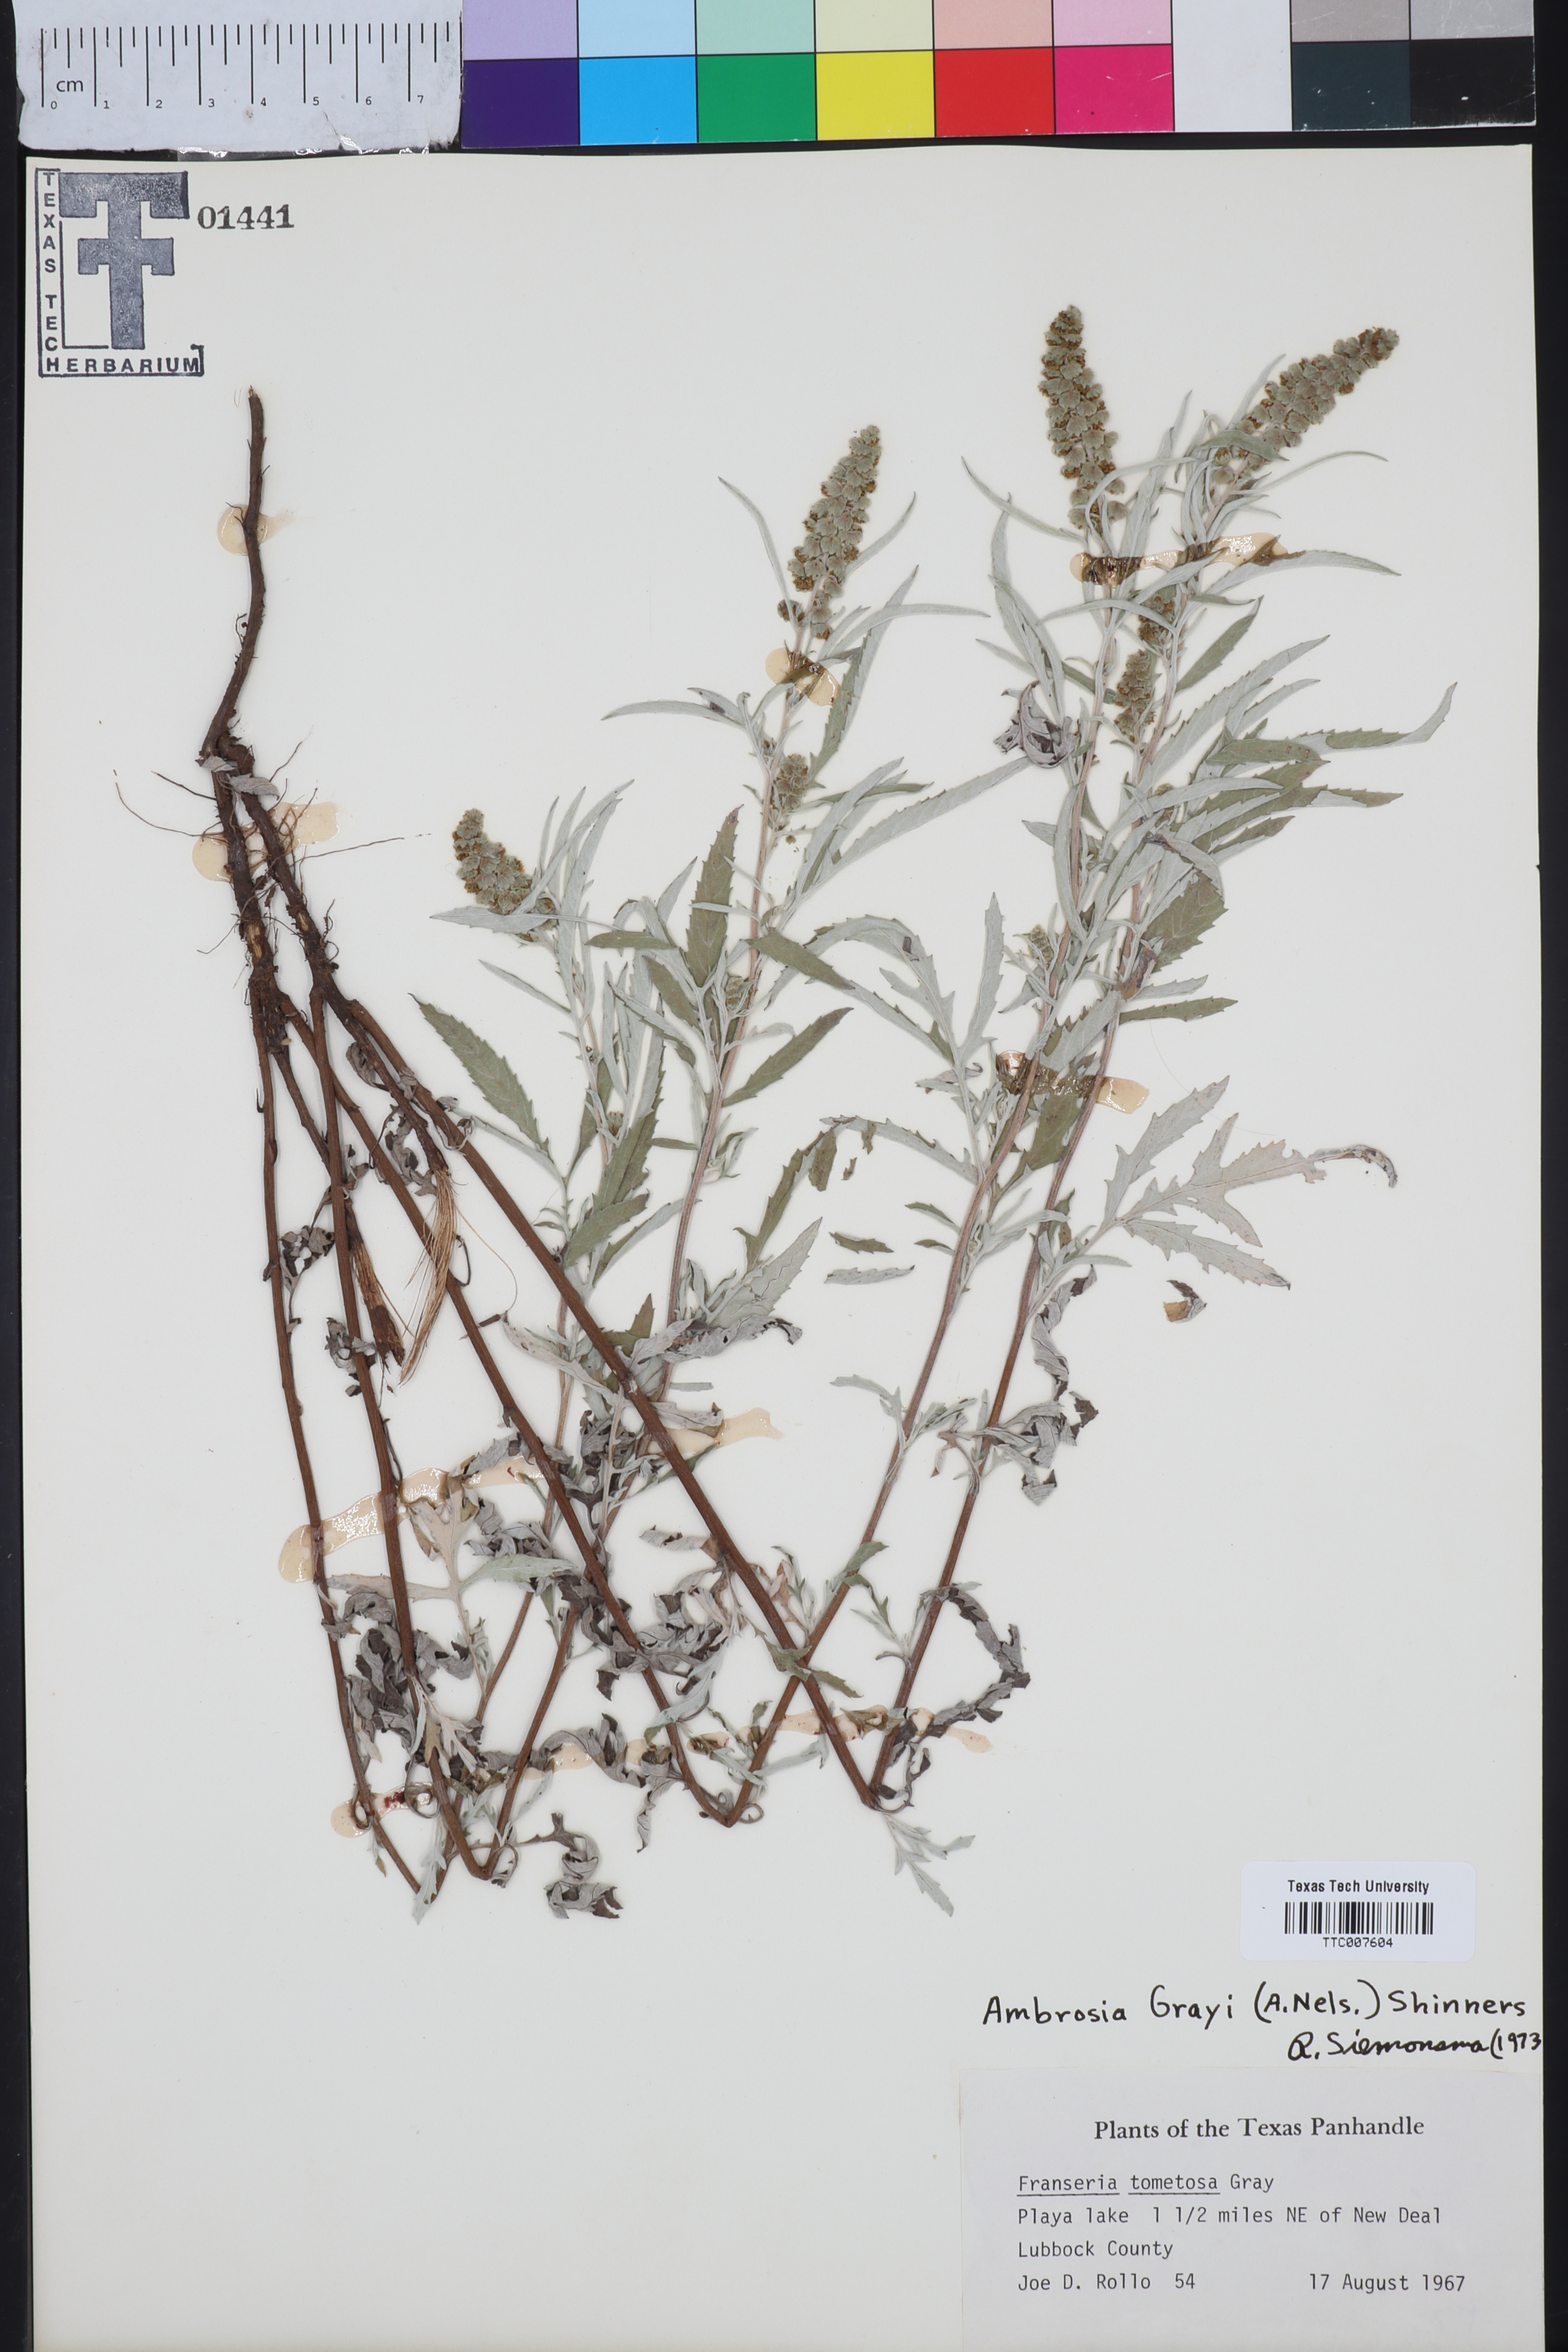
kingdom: Plantae
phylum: Tracheophyta
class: Magnoliopsida
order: Asterales
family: Asteraceae
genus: Ambrosia
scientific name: Ambrosia grayi
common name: Bur ragweed
